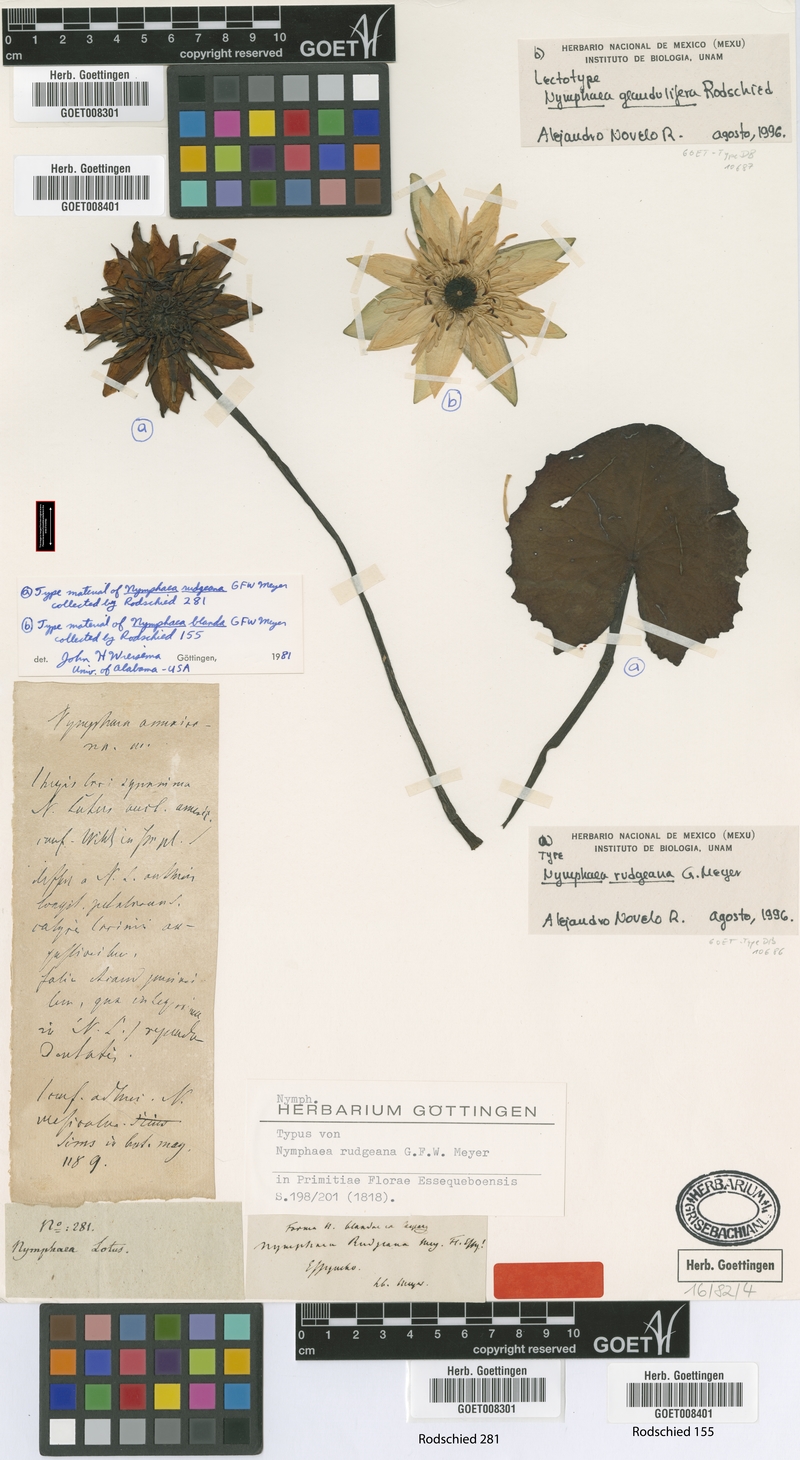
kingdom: Plantae
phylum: Tracheophyta
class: Magnoliopsida
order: Nymphaeales
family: Nymphaeaceae
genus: Nymphaea
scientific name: Nymphaea rudgeana
